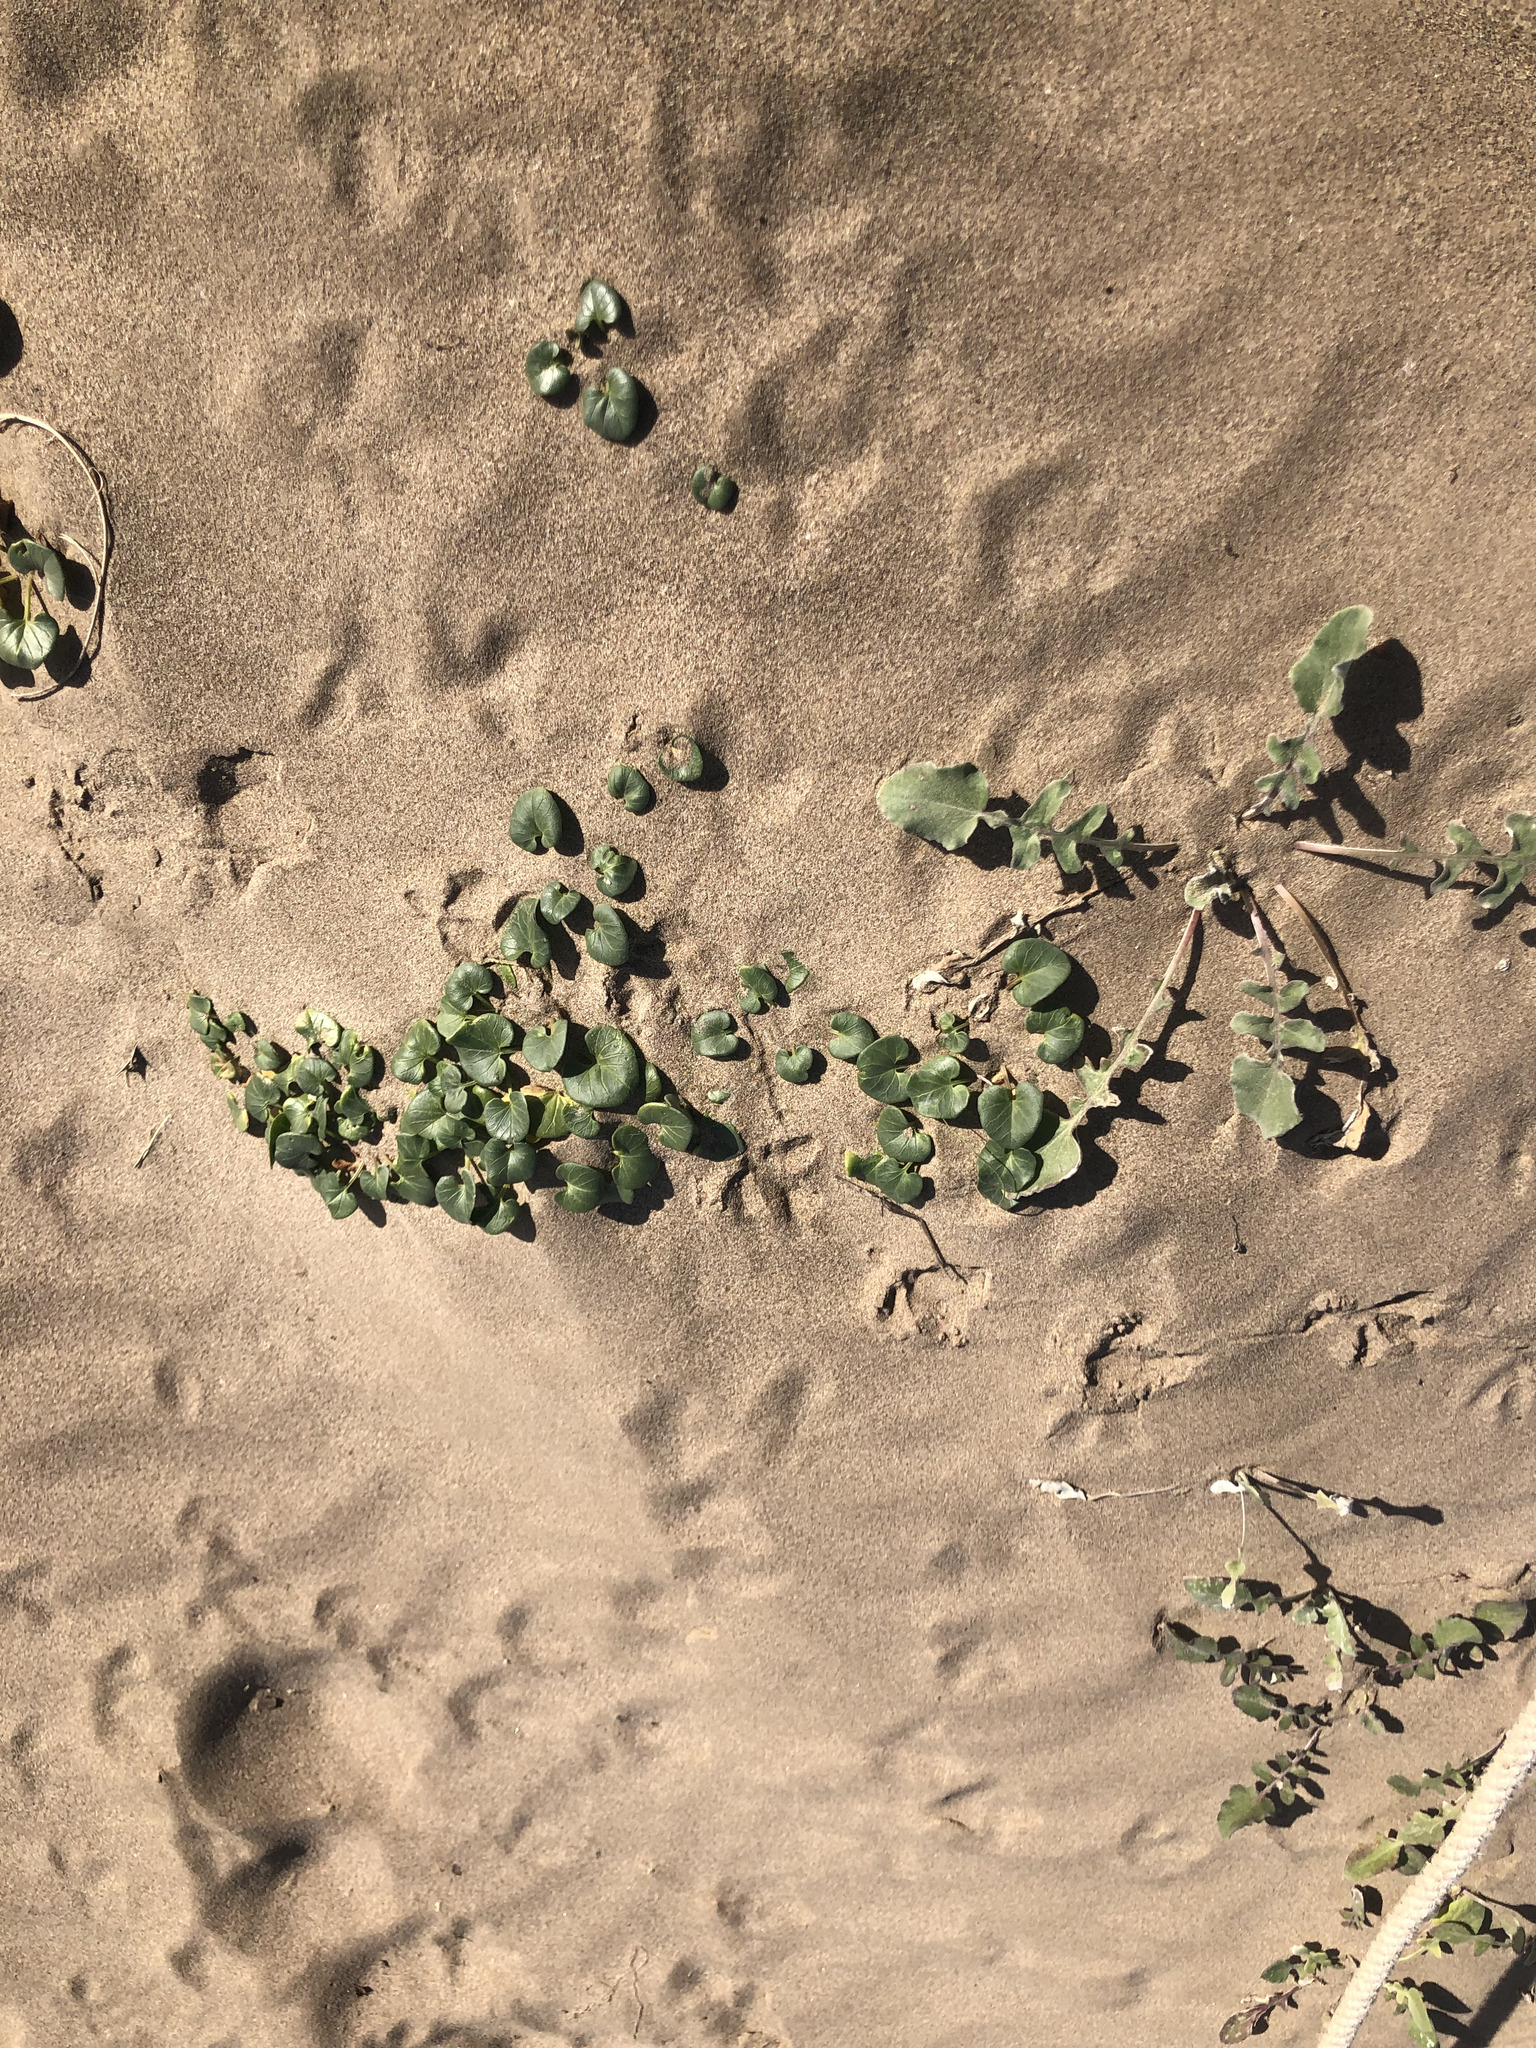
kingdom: Plantae
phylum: Tracheophyta
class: Magnoliopsida
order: Solanales
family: Convolvulaceae
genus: Calystegia
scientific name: Calystegia soldanella
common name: Sea bindweed
